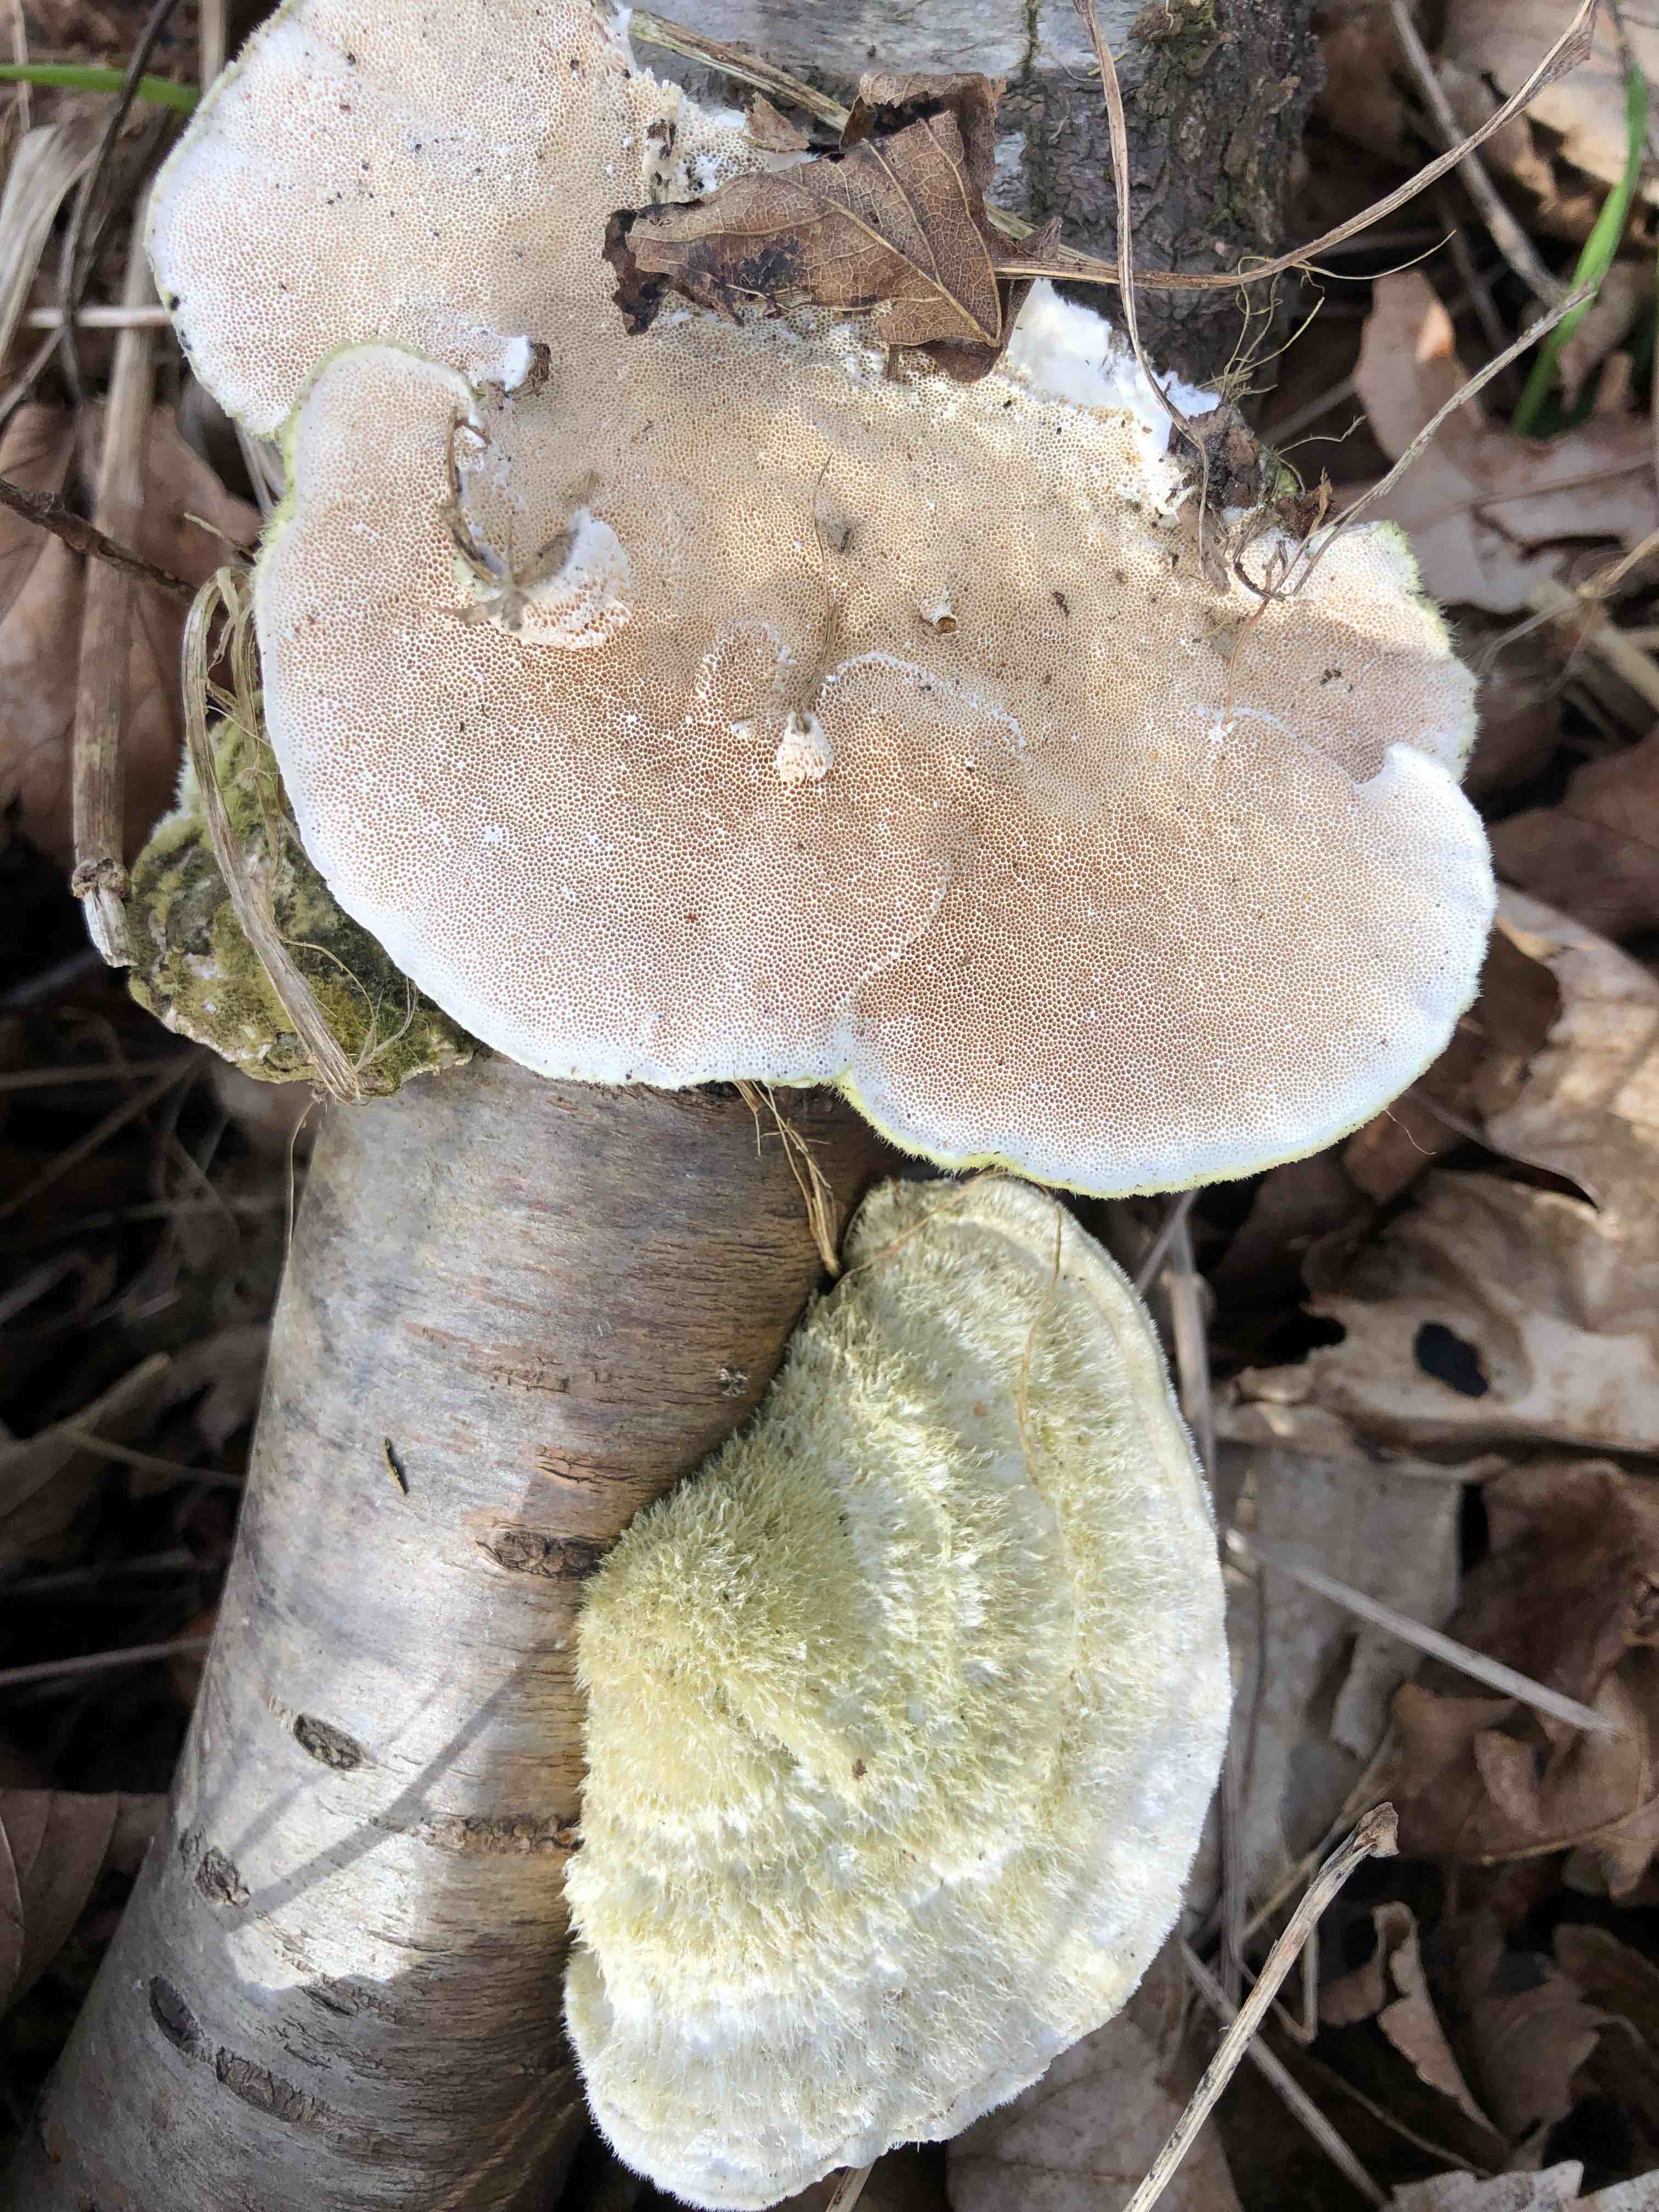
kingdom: Fungi
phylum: Basidiomycota
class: Agaricomycetes
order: Polyporales
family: Polyporaceae
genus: Trametes
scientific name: Trametes hirsuta
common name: håret læderporesvamp
